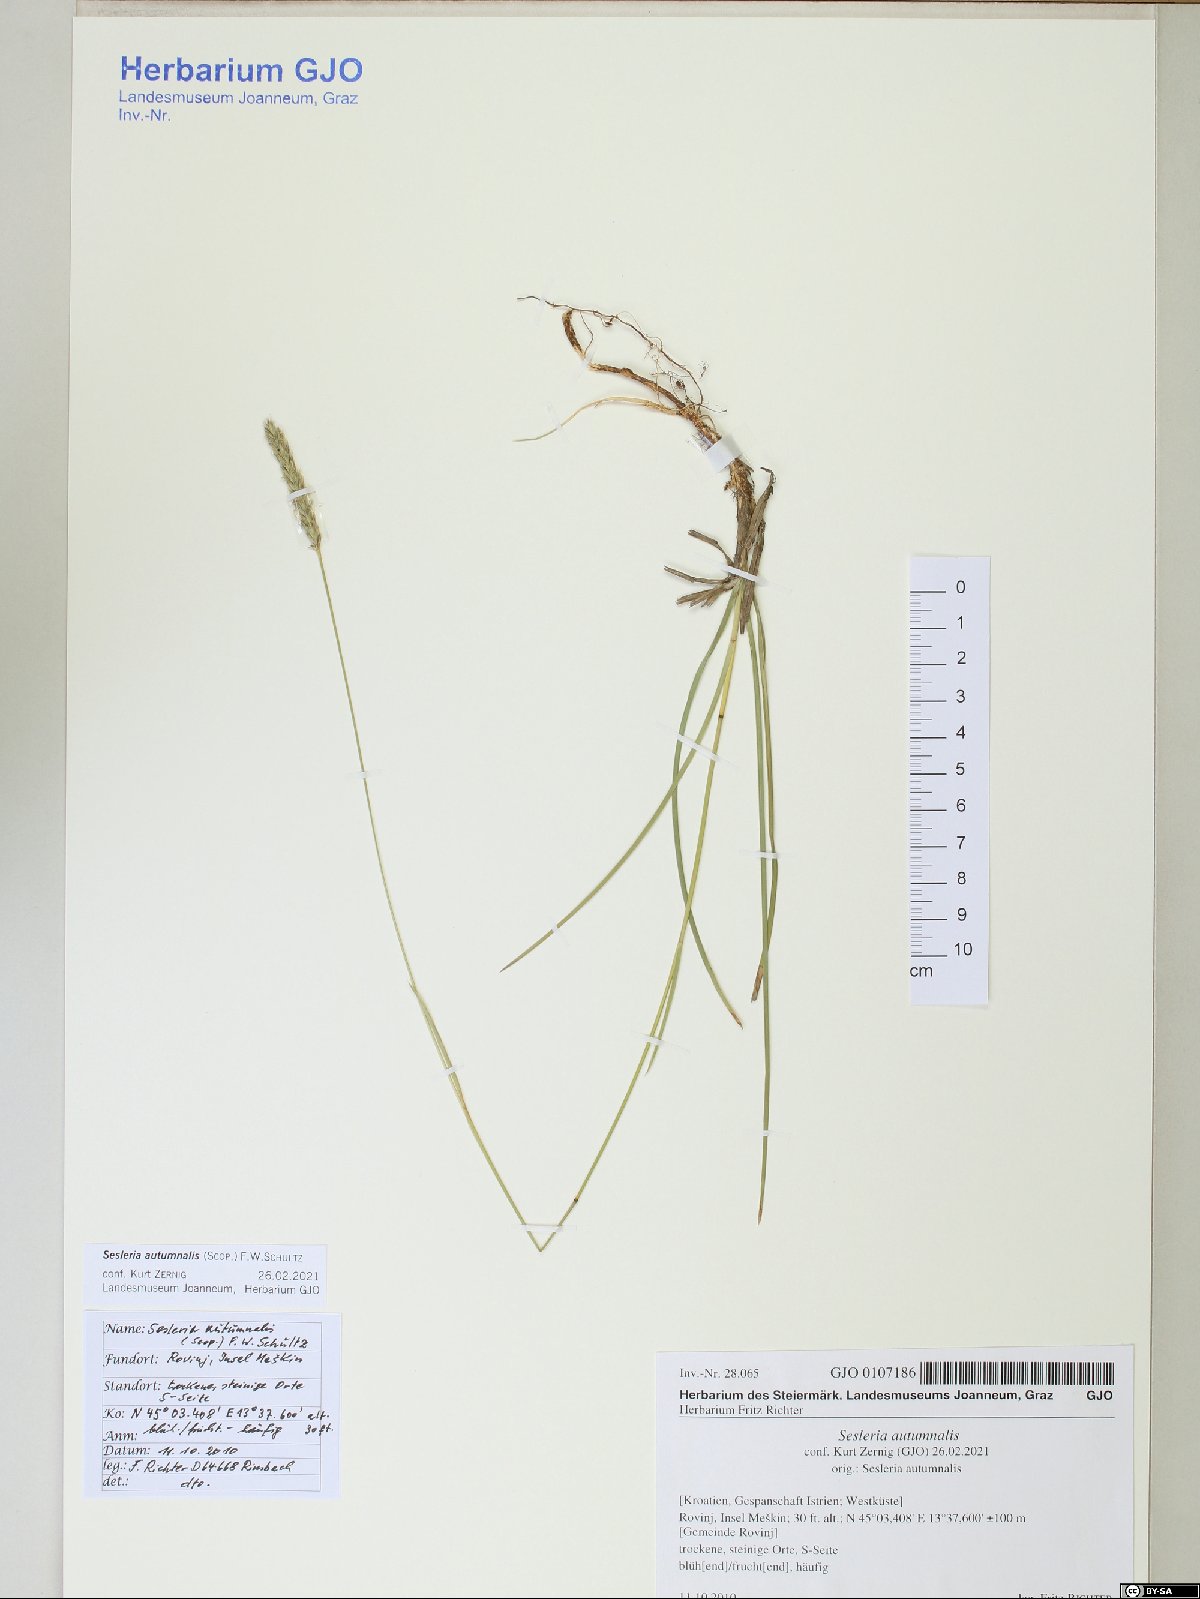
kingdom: Plantae
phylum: Tracheophyta
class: Liliopsida
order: Poales
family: Poaceae
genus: Sesleria
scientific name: Sesleria autumnalis
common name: Autumn moor grass
